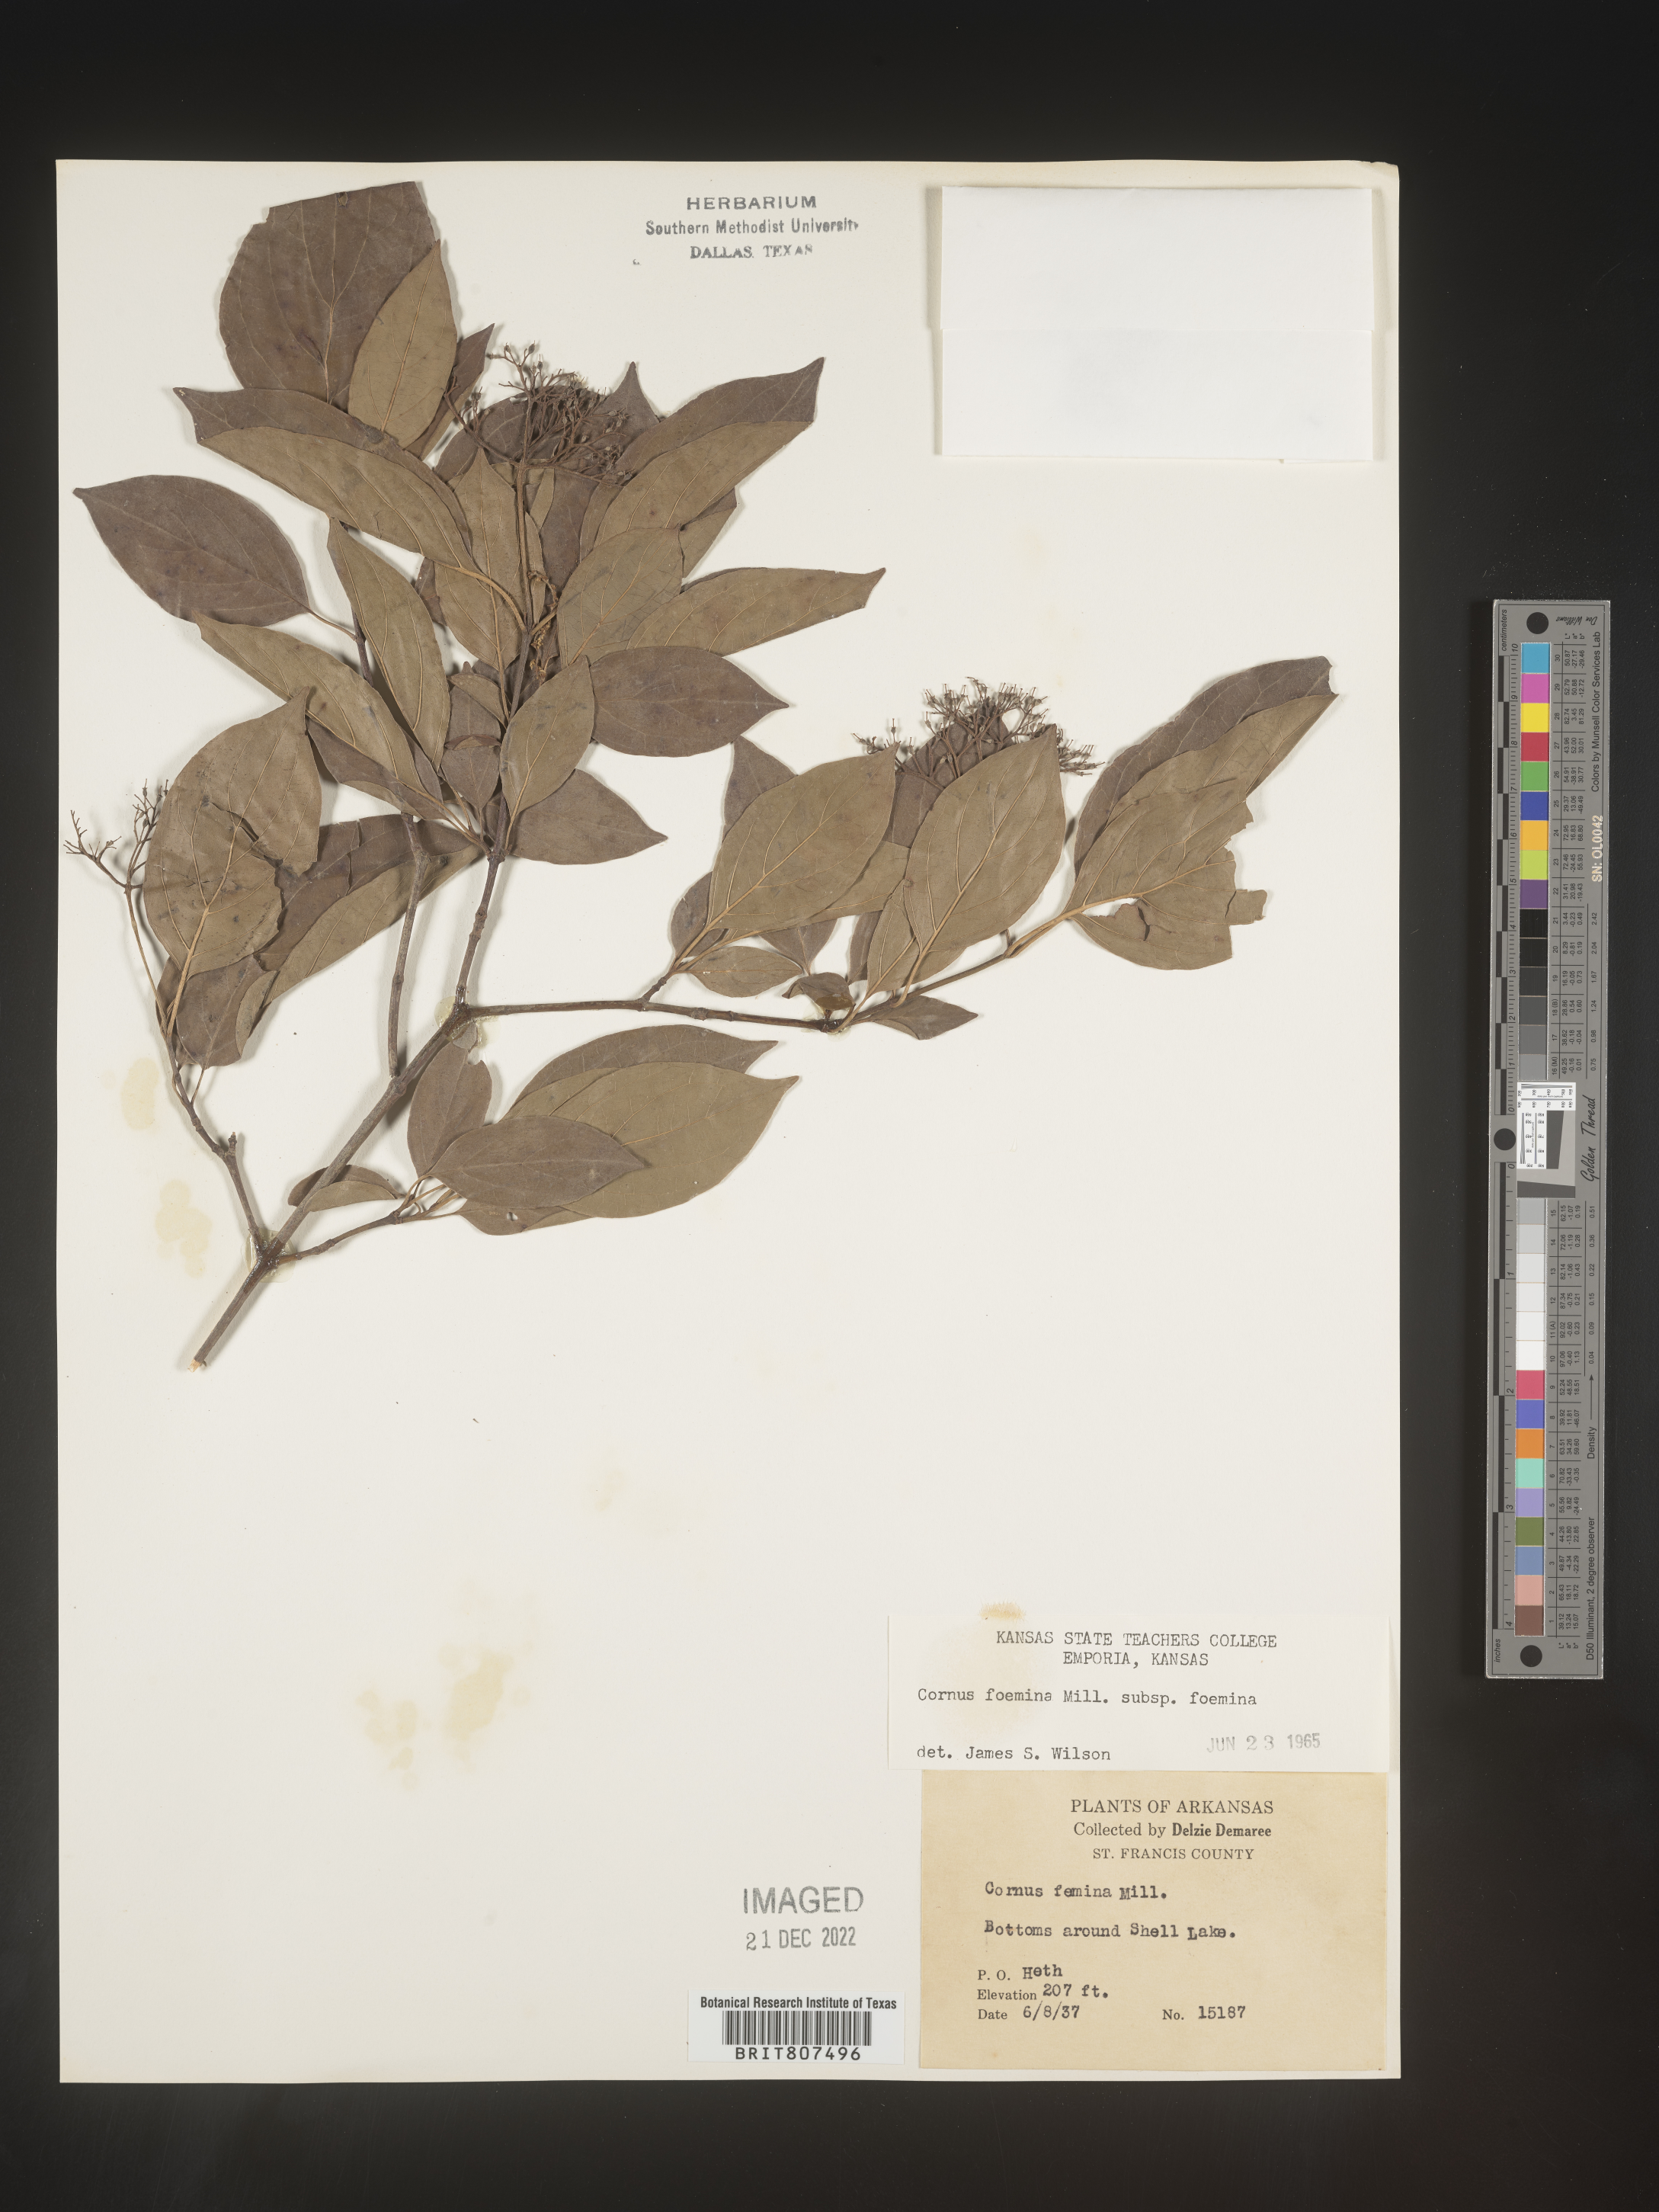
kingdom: Plantae
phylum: Tracheophyta
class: Magnoliopsida
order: Cornales
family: Cornaceae
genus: Cornus
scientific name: Cornus foemina
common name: Swamp dogwood
